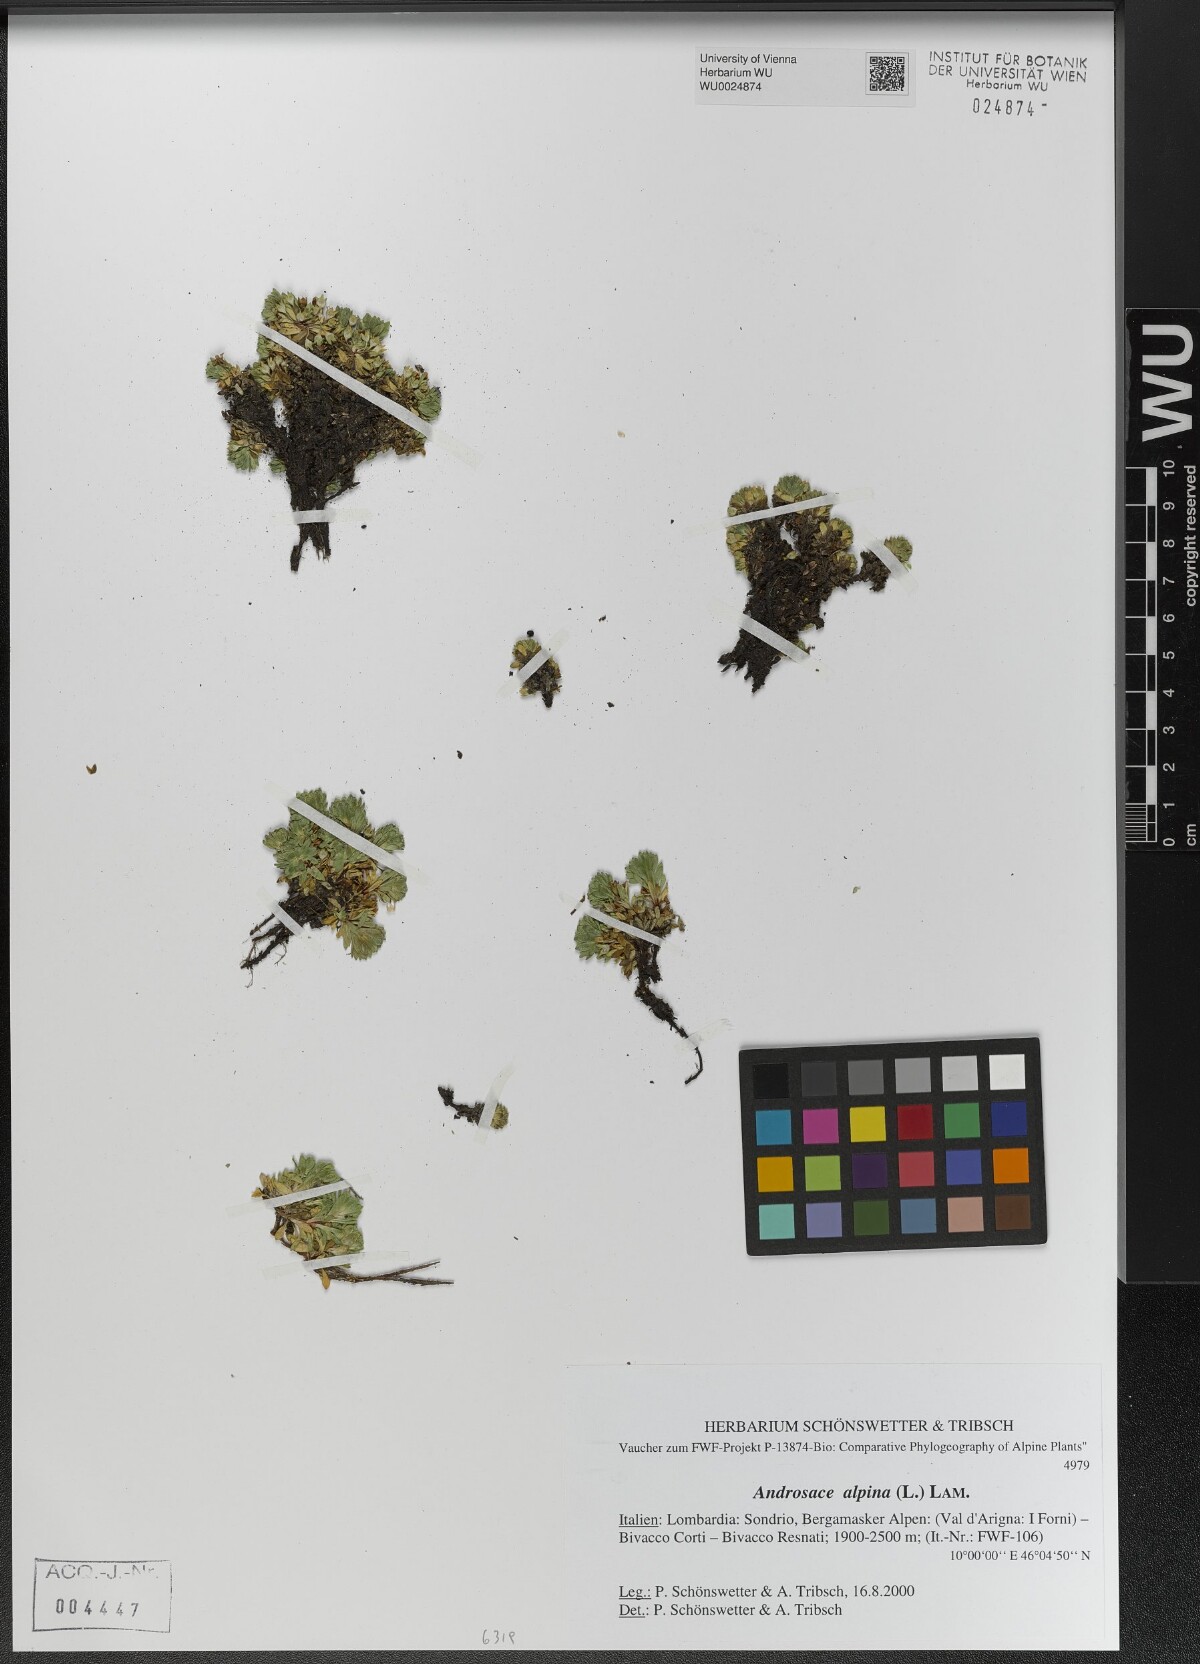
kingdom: Plantae
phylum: Tracheophyta
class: Magnoliopsida
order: Ericales
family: Primulaceae
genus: Androsace
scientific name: Androsace alpina
